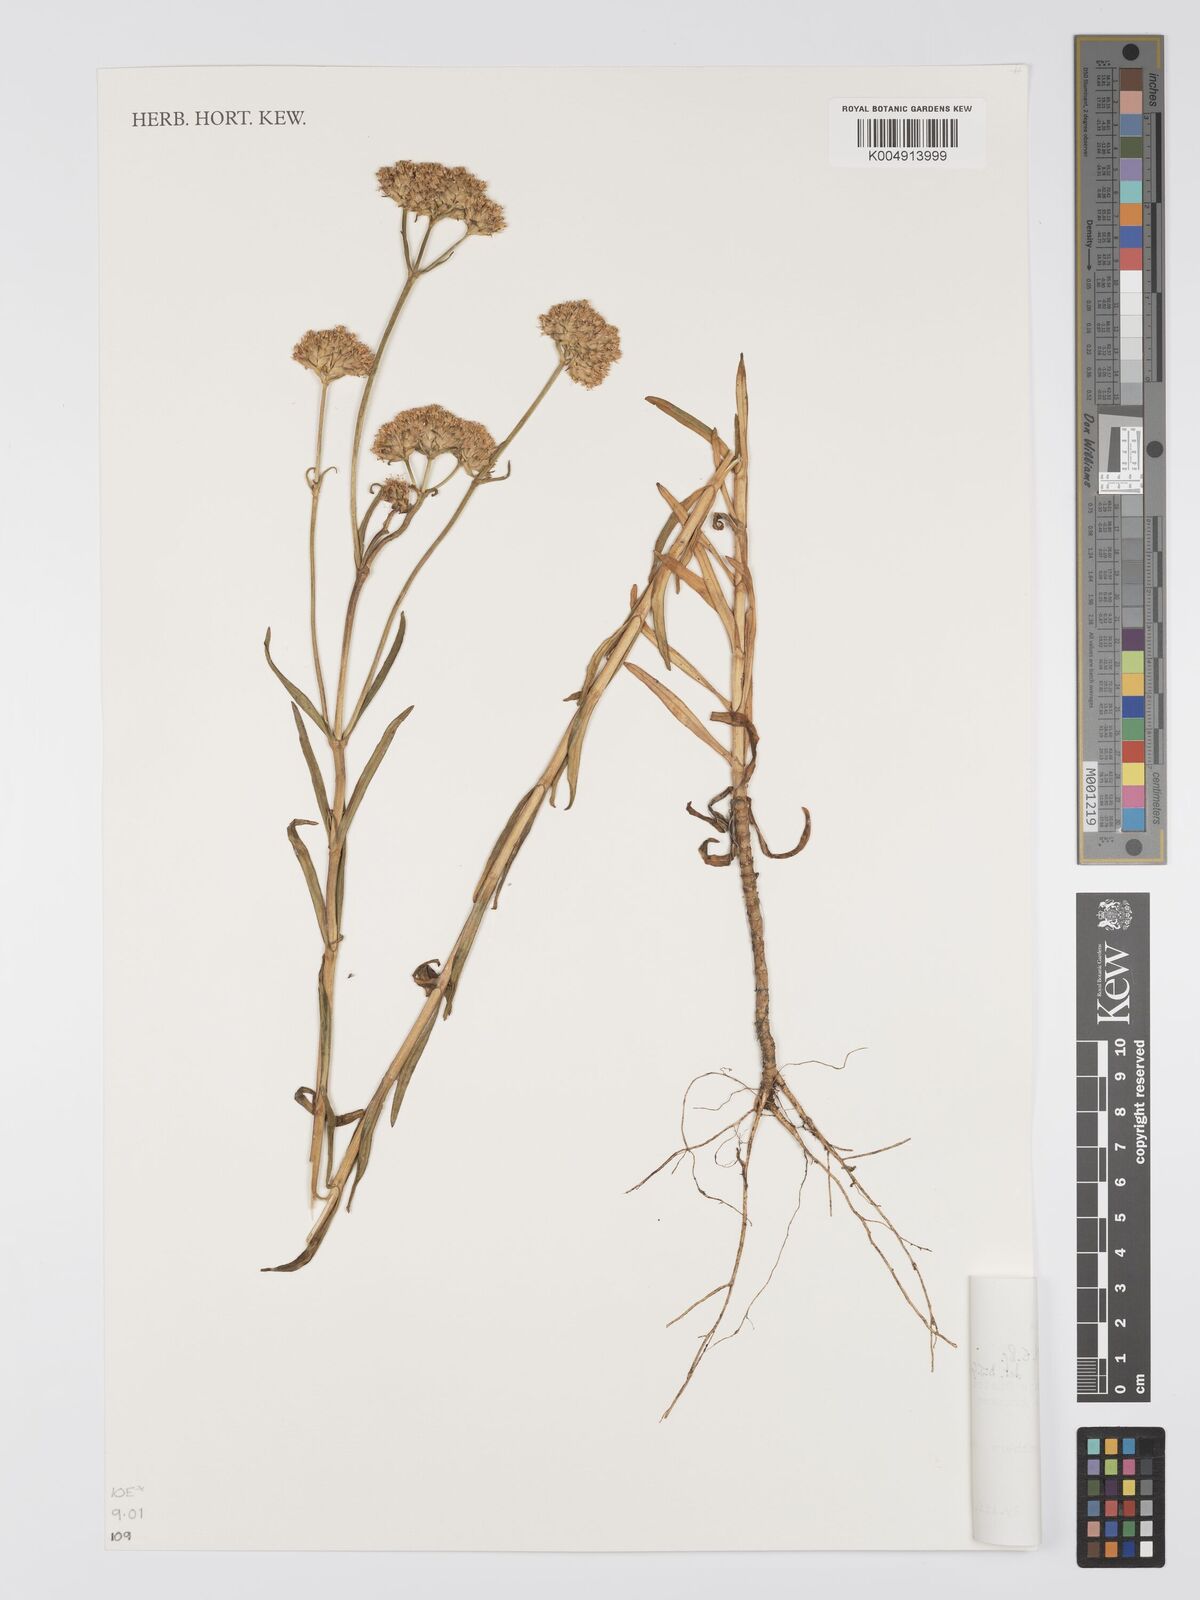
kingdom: Plantae
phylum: Tracheophyta
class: Magnoliopsida
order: Gentianales
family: Gentianaceae
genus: Pycnosphaera
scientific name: Pycnosphaera buchananii
